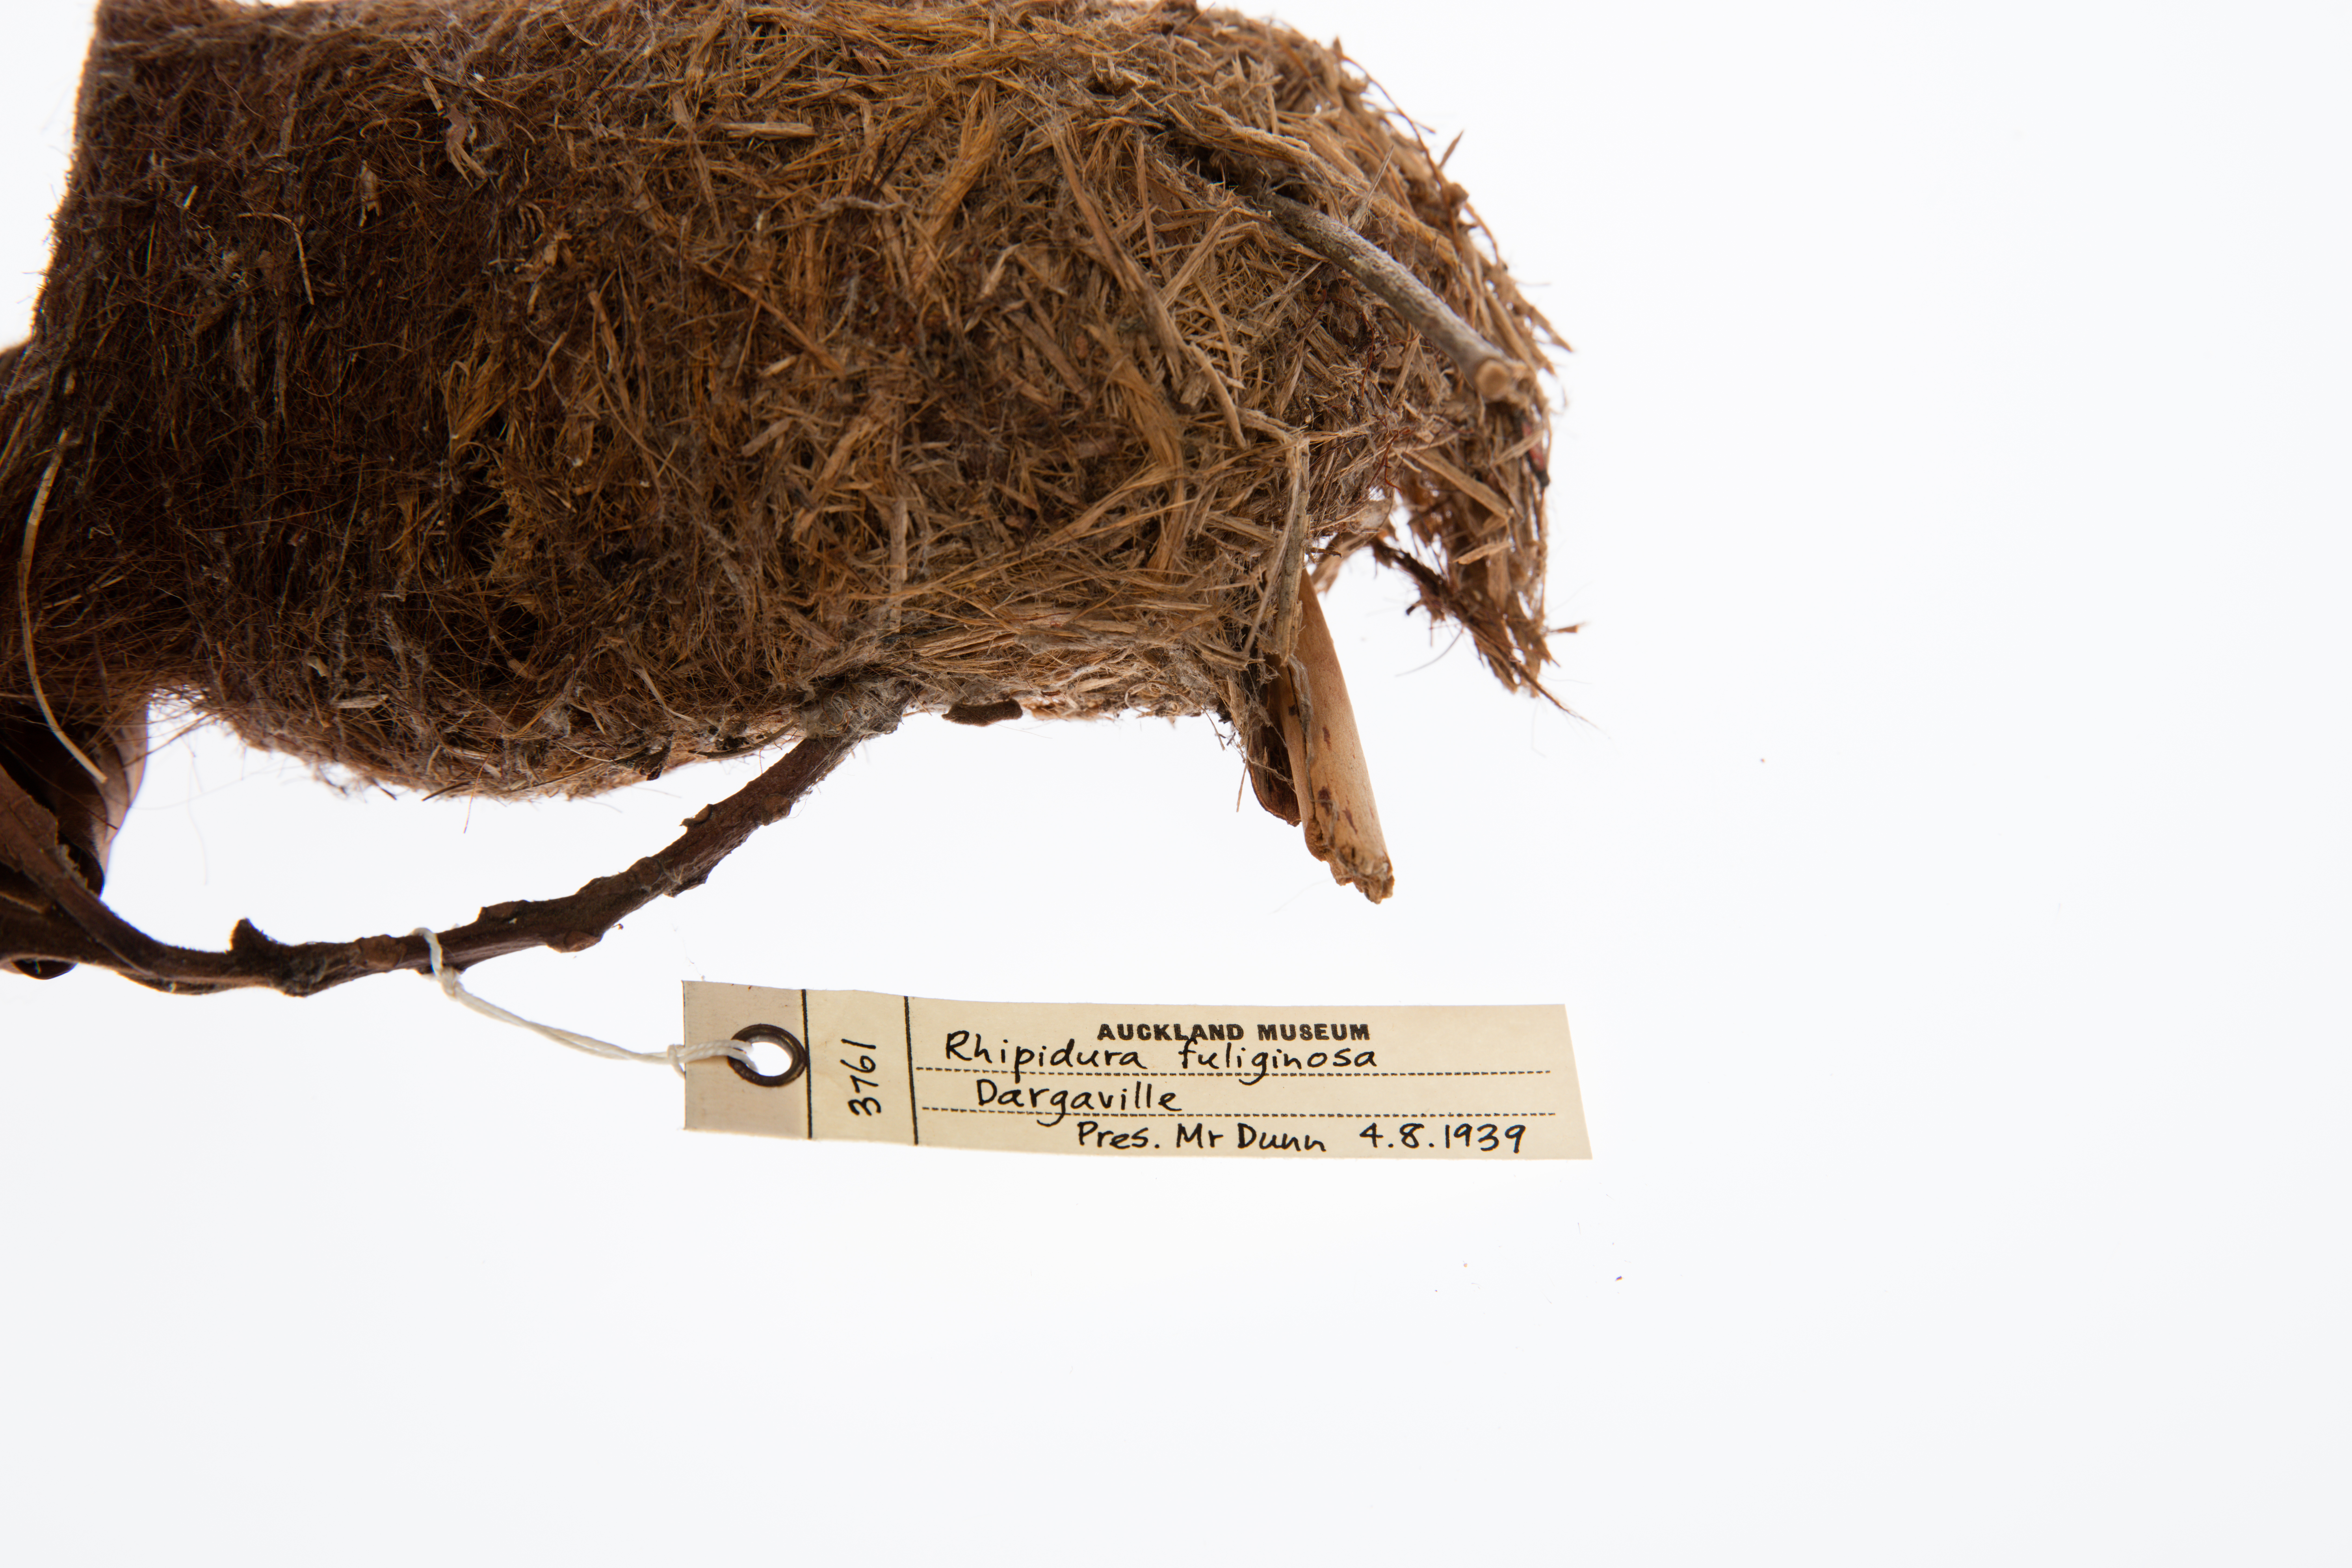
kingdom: Animalia
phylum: Chordata
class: Aves
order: Passeriformes
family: Rhipiduridae
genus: Rhipidura
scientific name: Rhipidura fuliginosa
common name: New zealand fantail
